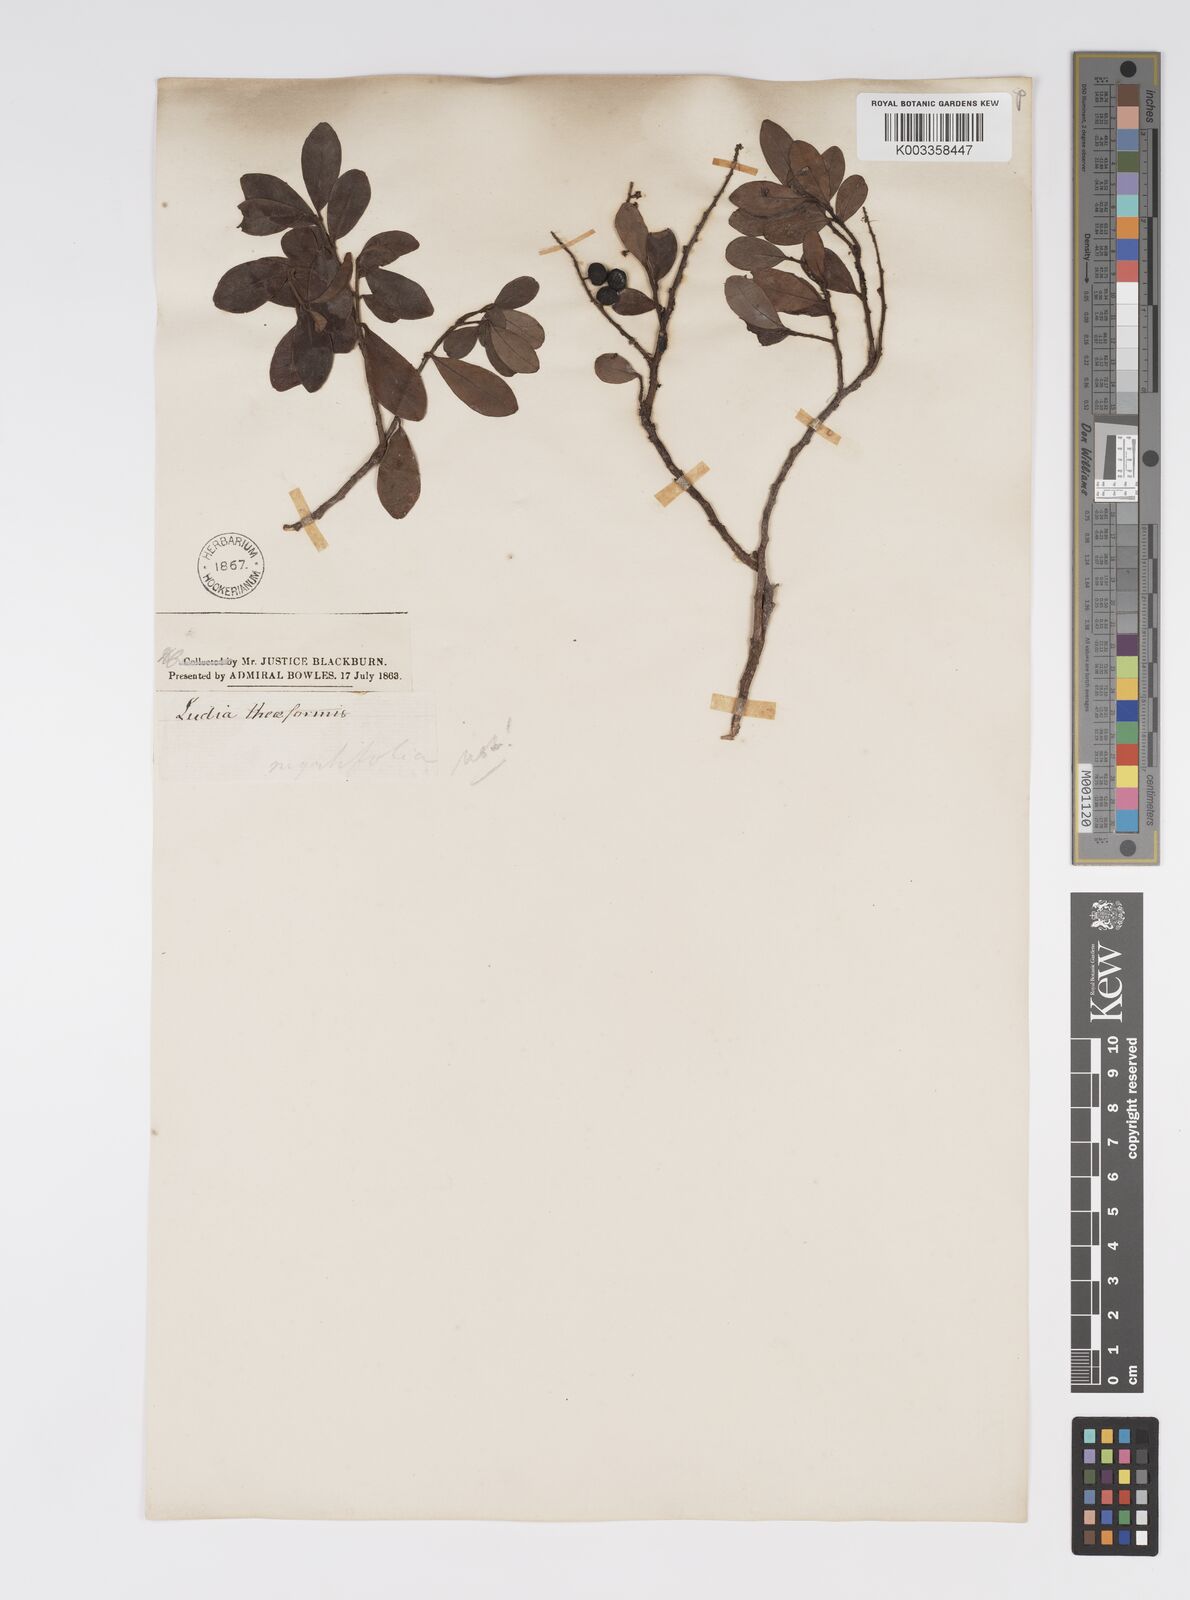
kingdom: Plantae
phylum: Tracheophyta
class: Magnoliopsida
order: Malpighiales
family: Salicaceae
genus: Ludia
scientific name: Ludia mauritiana
